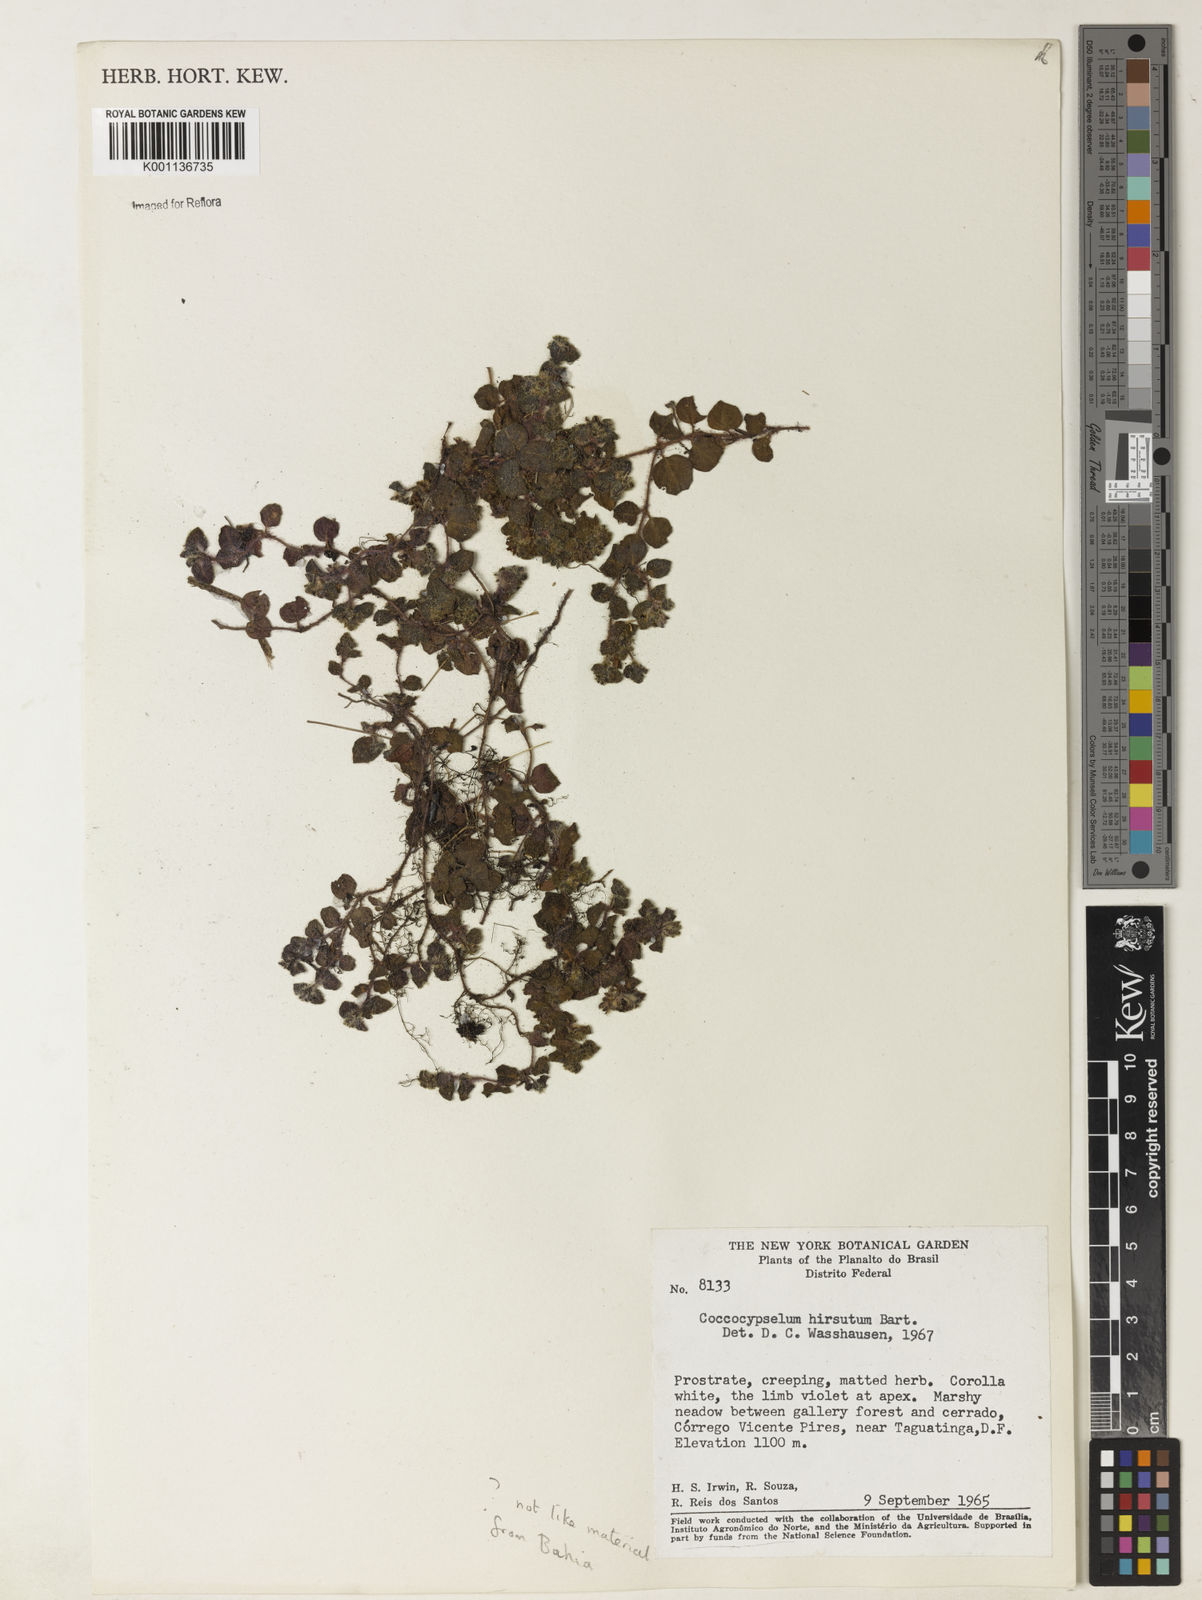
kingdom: Plantae
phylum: Tracheophyta
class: Magnoliopsida
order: Gentianales
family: Rubiaceae
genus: Coccocypselum
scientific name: Coccocypselum lymansmithii
